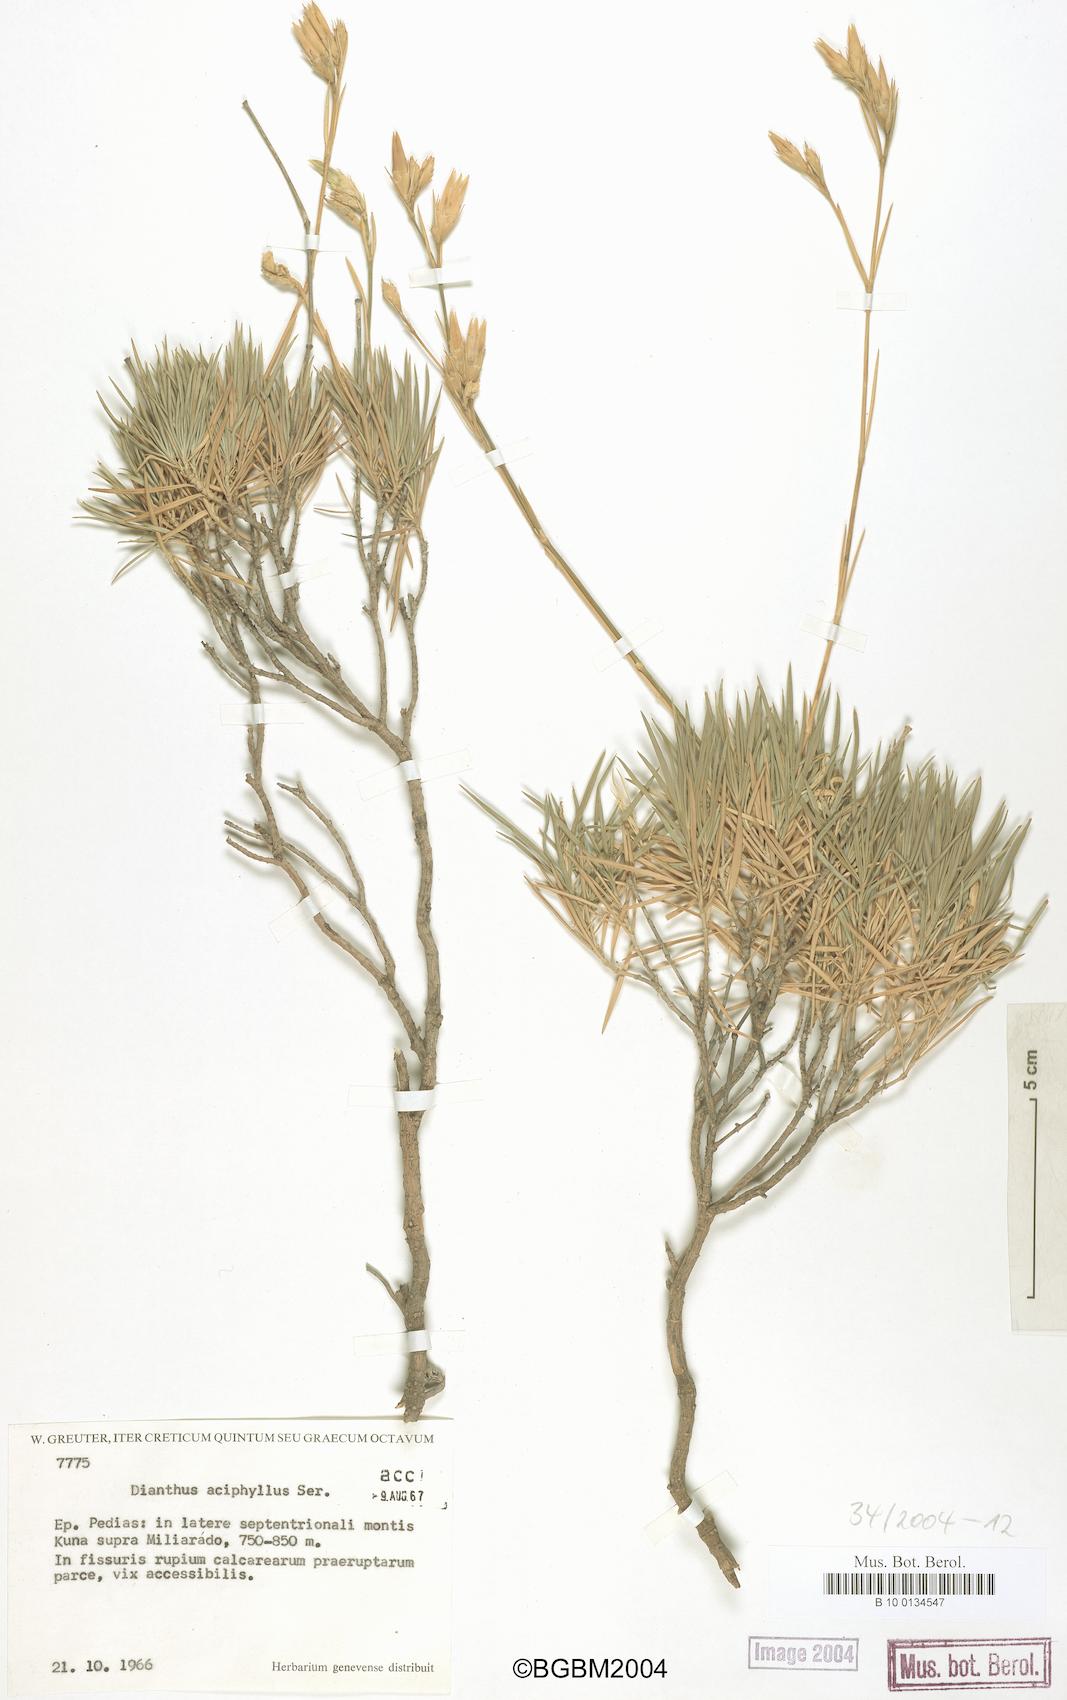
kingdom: Plantae
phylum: Tracheophyta
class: Magnoliopsida
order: Caryophyllales
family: Caryophyllaceae
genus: Dianthus
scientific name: Dianthus juniperinus
